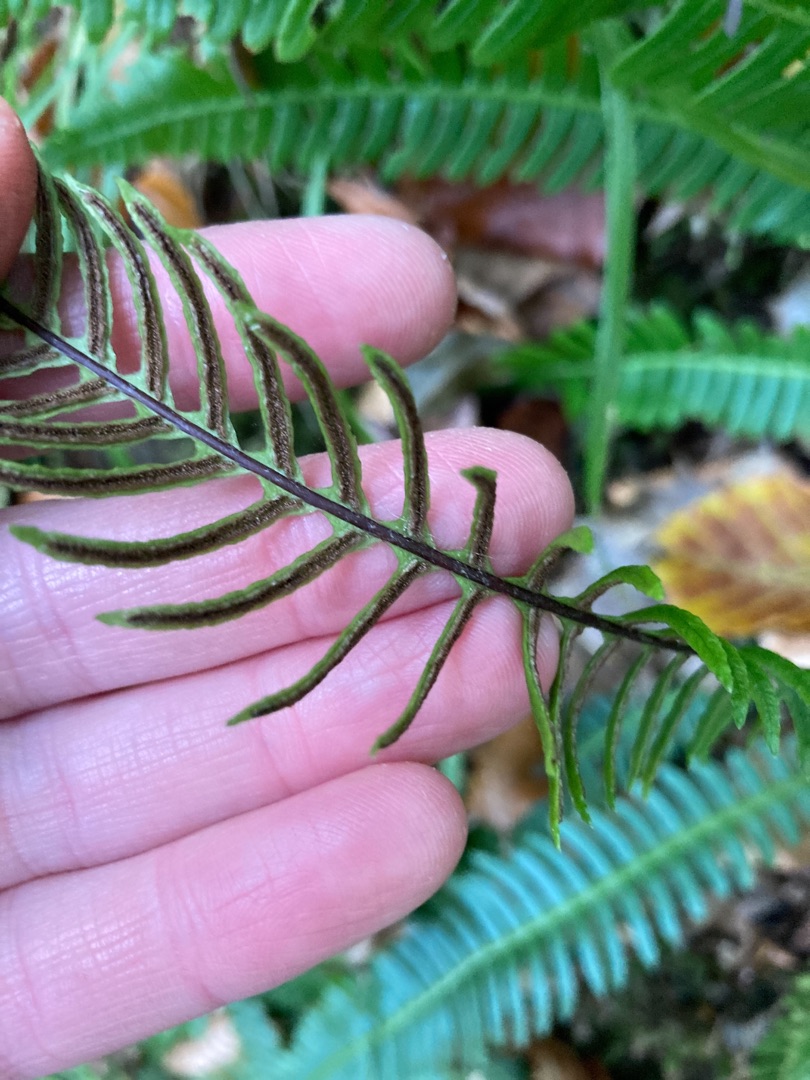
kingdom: Plantae
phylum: Tracheophyta
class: Polypodiopsida
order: Polypodiales
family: Blechnaceae
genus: Struthiopteris
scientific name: Struthiopteris spicant
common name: Kambregne
